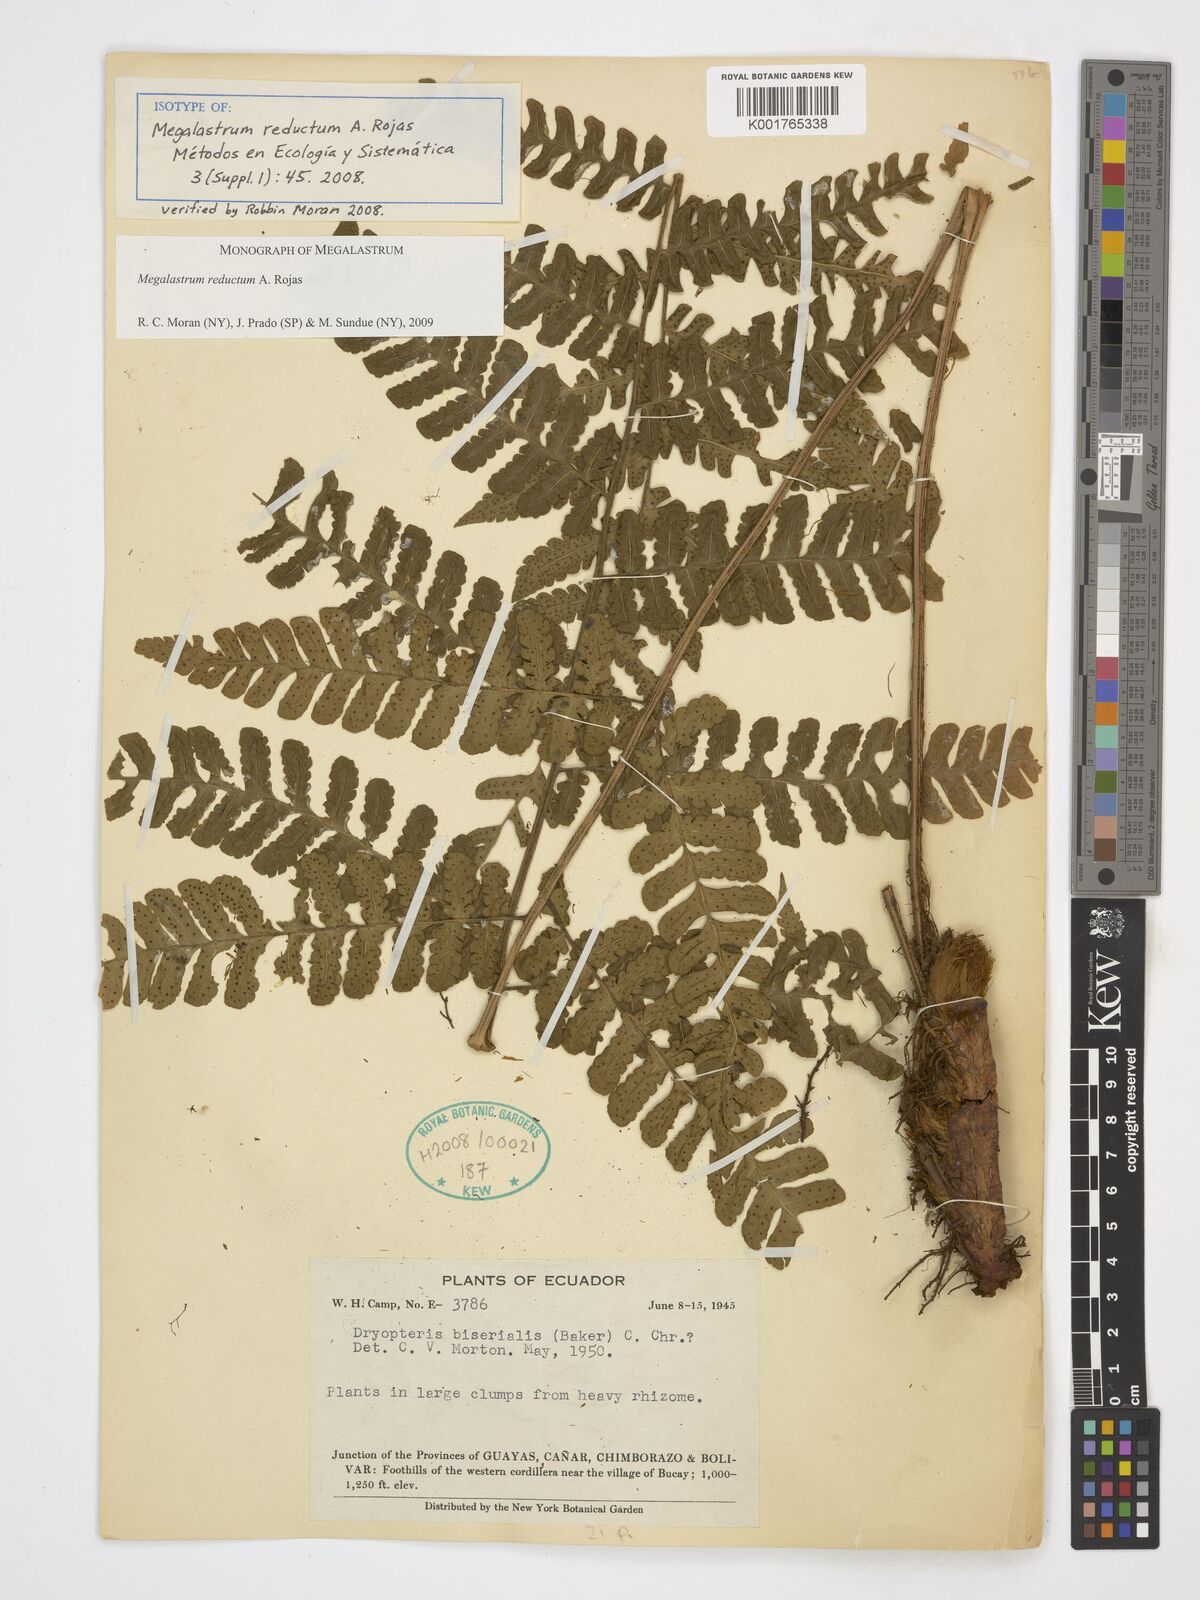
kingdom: Plantae
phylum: Tracheophyta
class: Polypodiopsida
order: Polypodiales
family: Dryopteridaceae
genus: Megalastrum
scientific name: Megalastrum reductum
